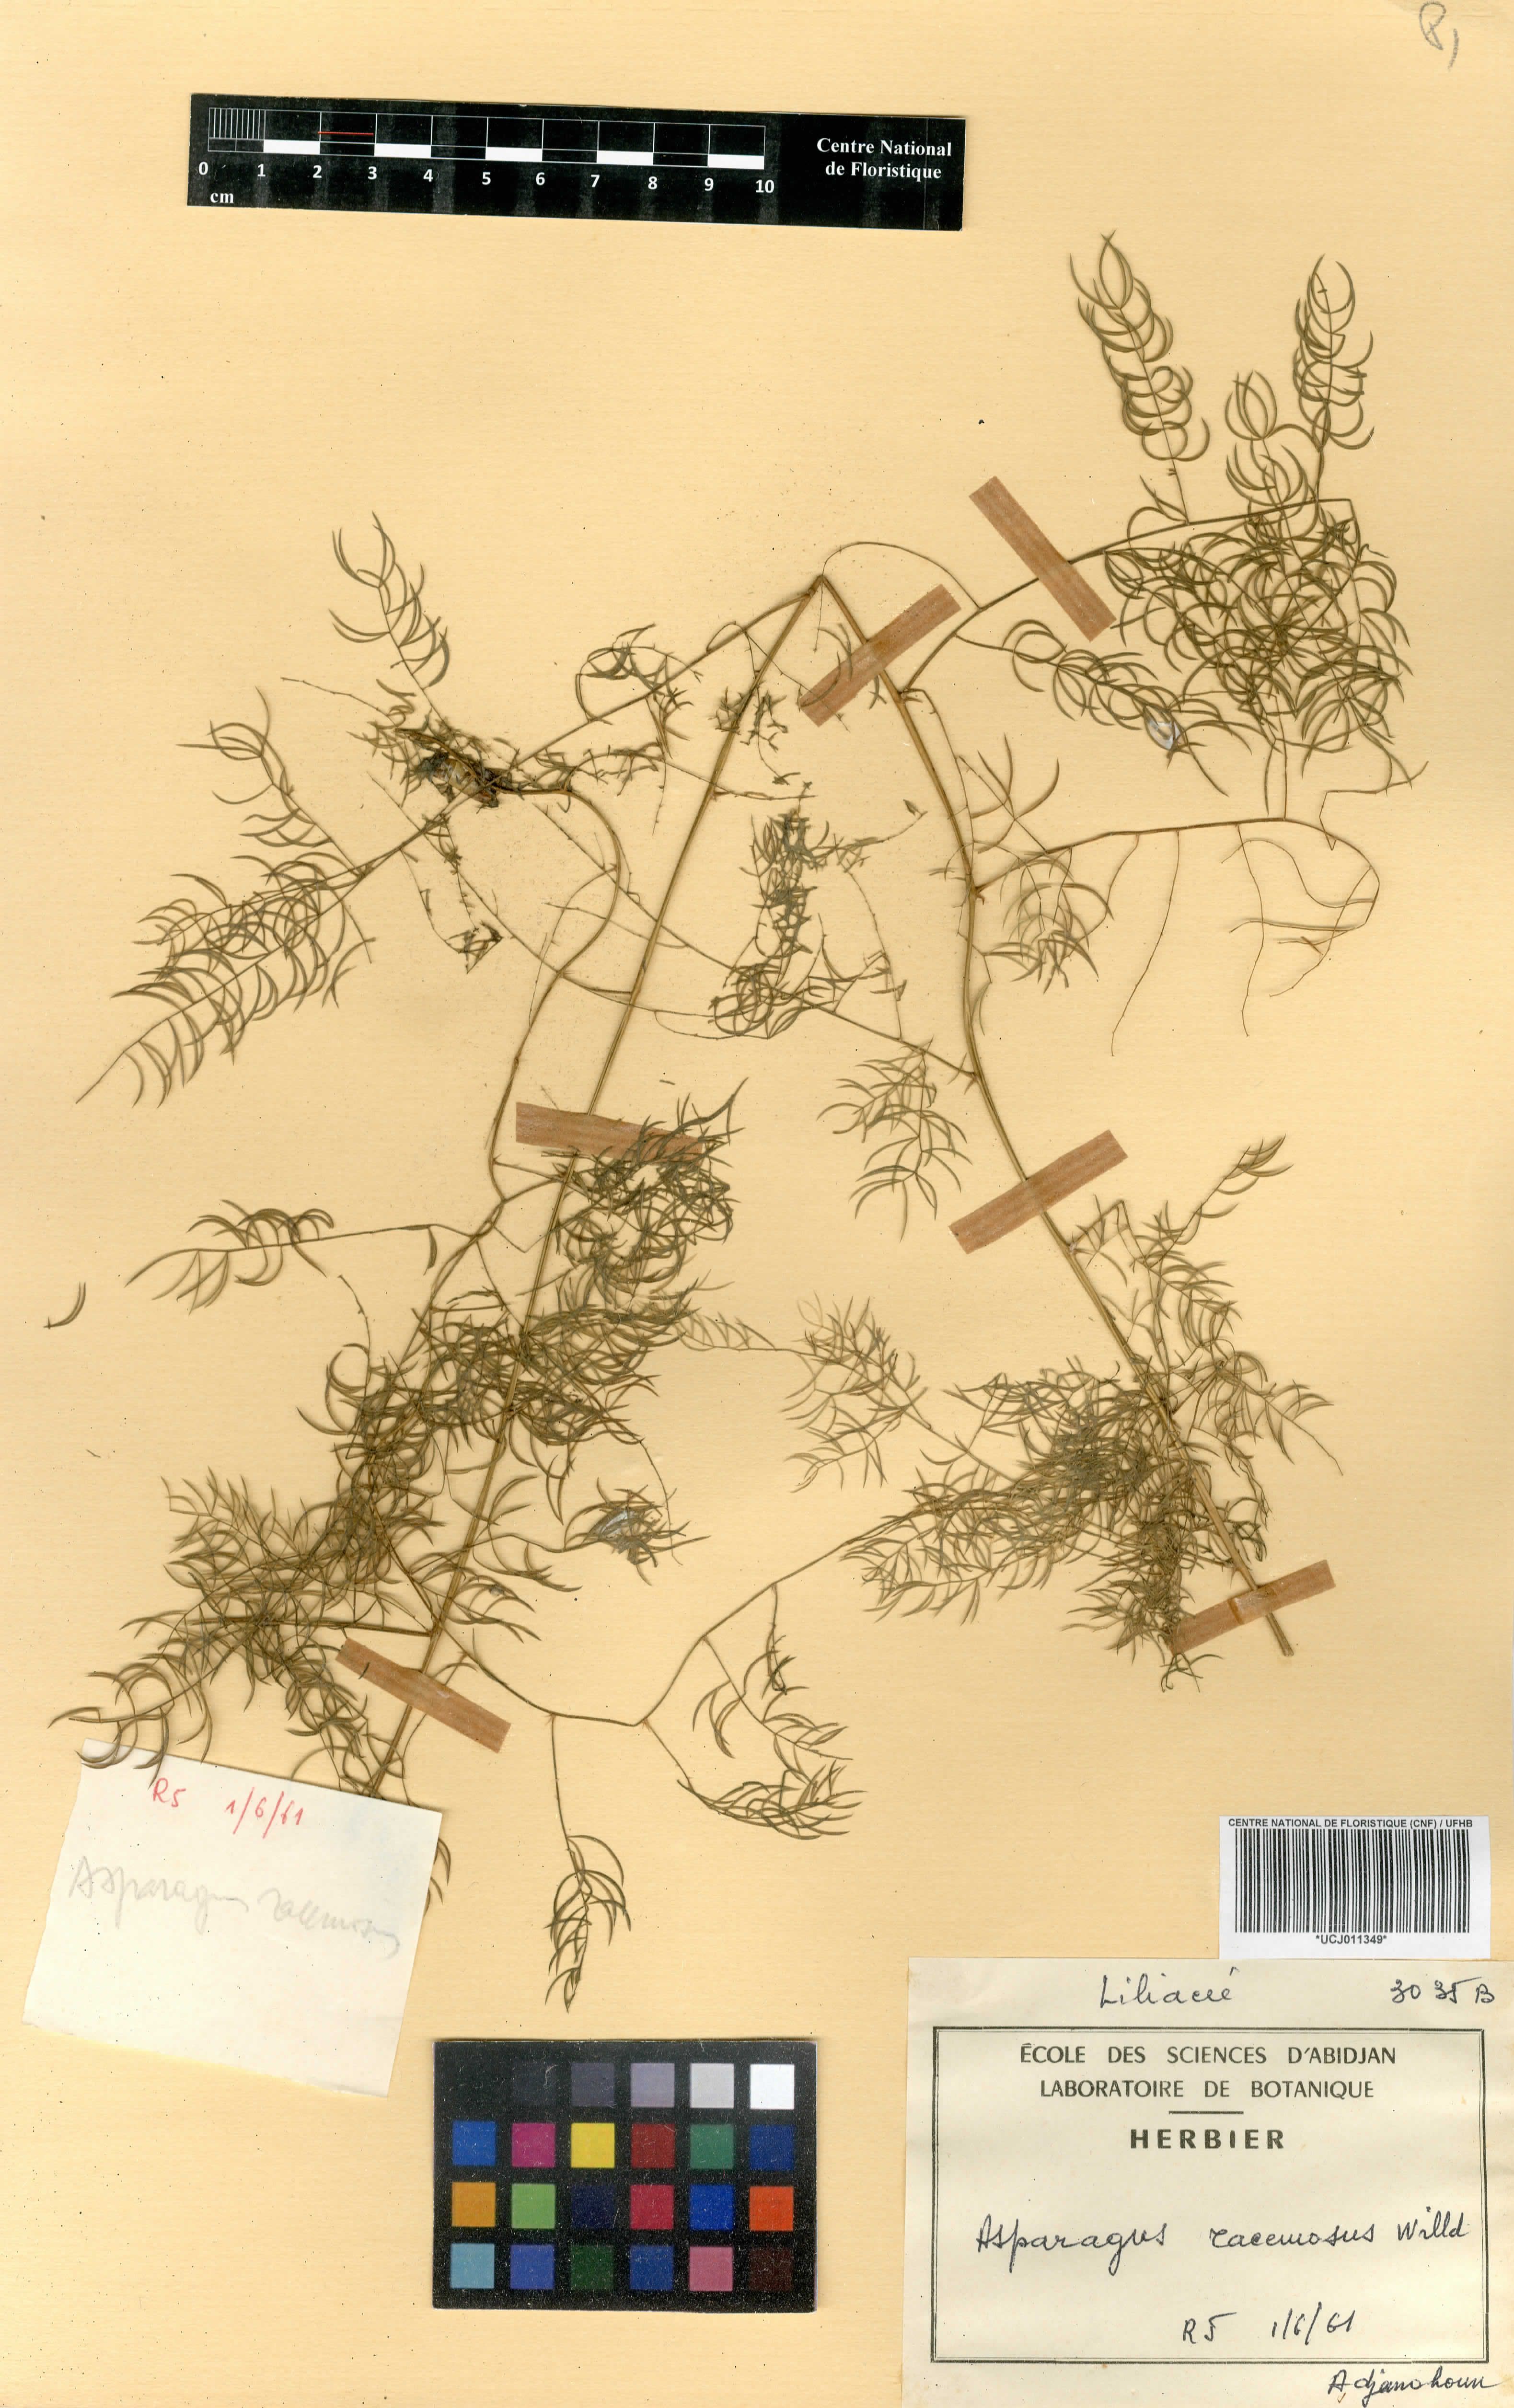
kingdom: Plantae
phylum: Tracheophyta
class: Liliopsida
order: Asparagales
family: Asparagaceae
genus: Asparagus
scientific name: Asparagus racemosus
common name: Asparagus-fern
